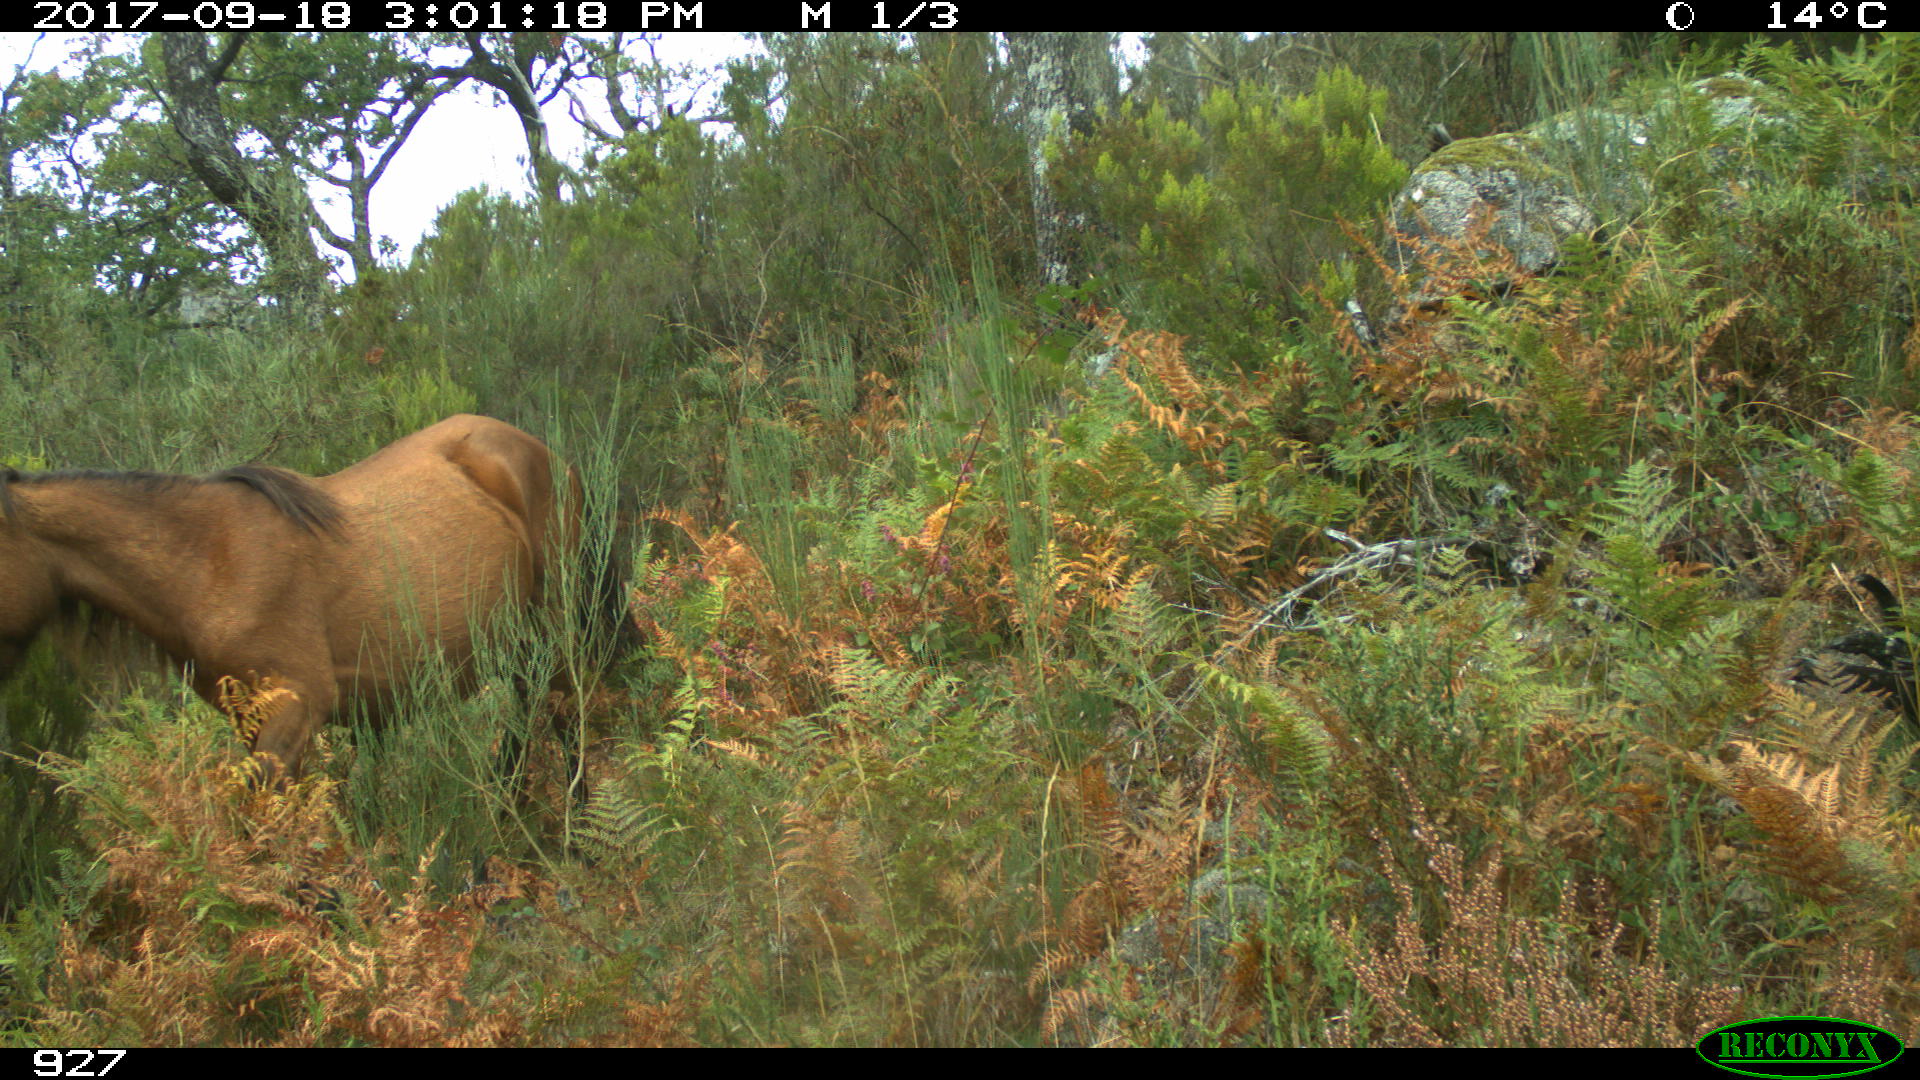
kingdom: Animalia
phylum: Chordata
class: Mammalia
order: Perissodactyla
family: Equidae
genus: Equus
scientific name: Equus caballus
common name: Horse
